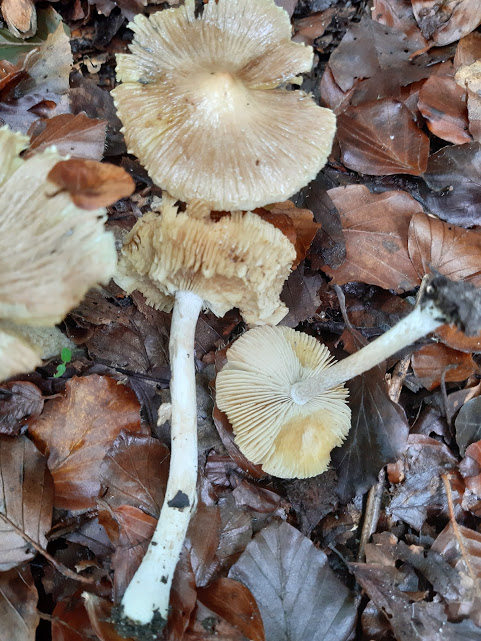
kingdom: Fungi
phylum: Basidiomycota
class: Agaricomycetes
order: Agaricales
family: Inocybaceae
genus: Inocybe
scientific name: Inocybe
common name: trævlhat
